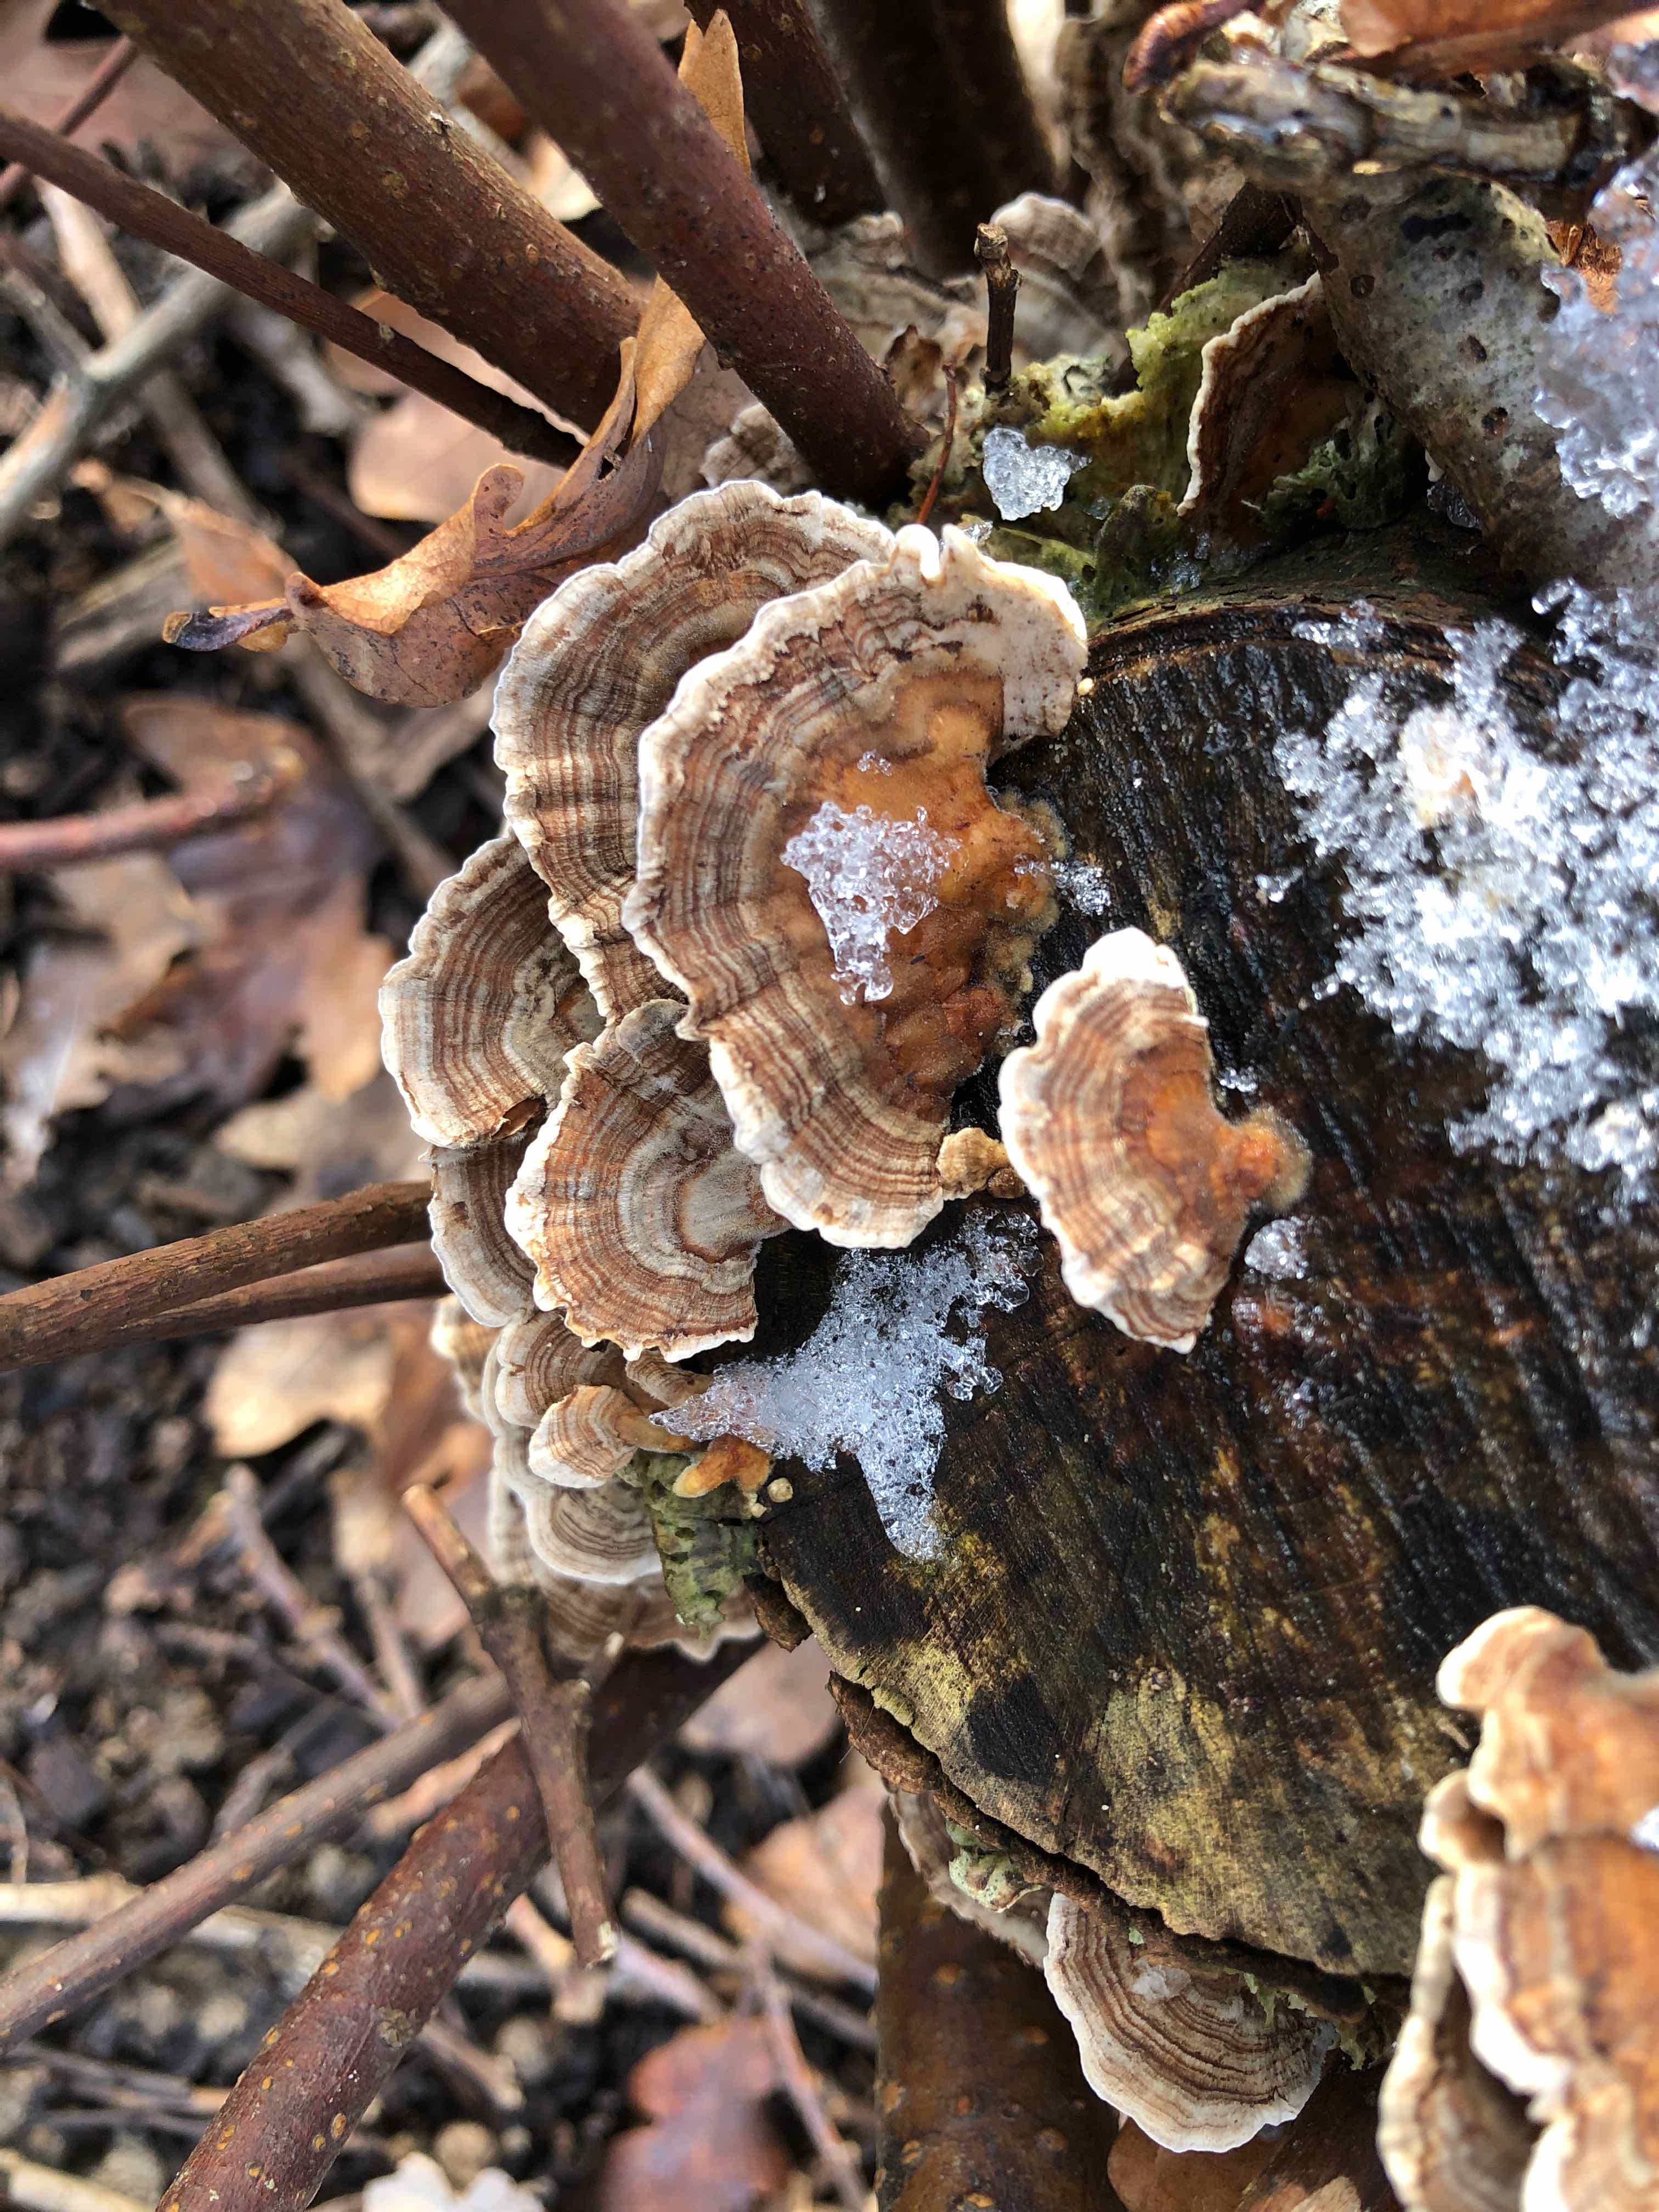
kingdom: Fungi
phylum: Basidiomycota
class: Agaricomycetes
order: Polyporales
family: Polyporaceae
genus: Trametes
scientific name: Trametes versicolor
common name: broget læderporesvamp
